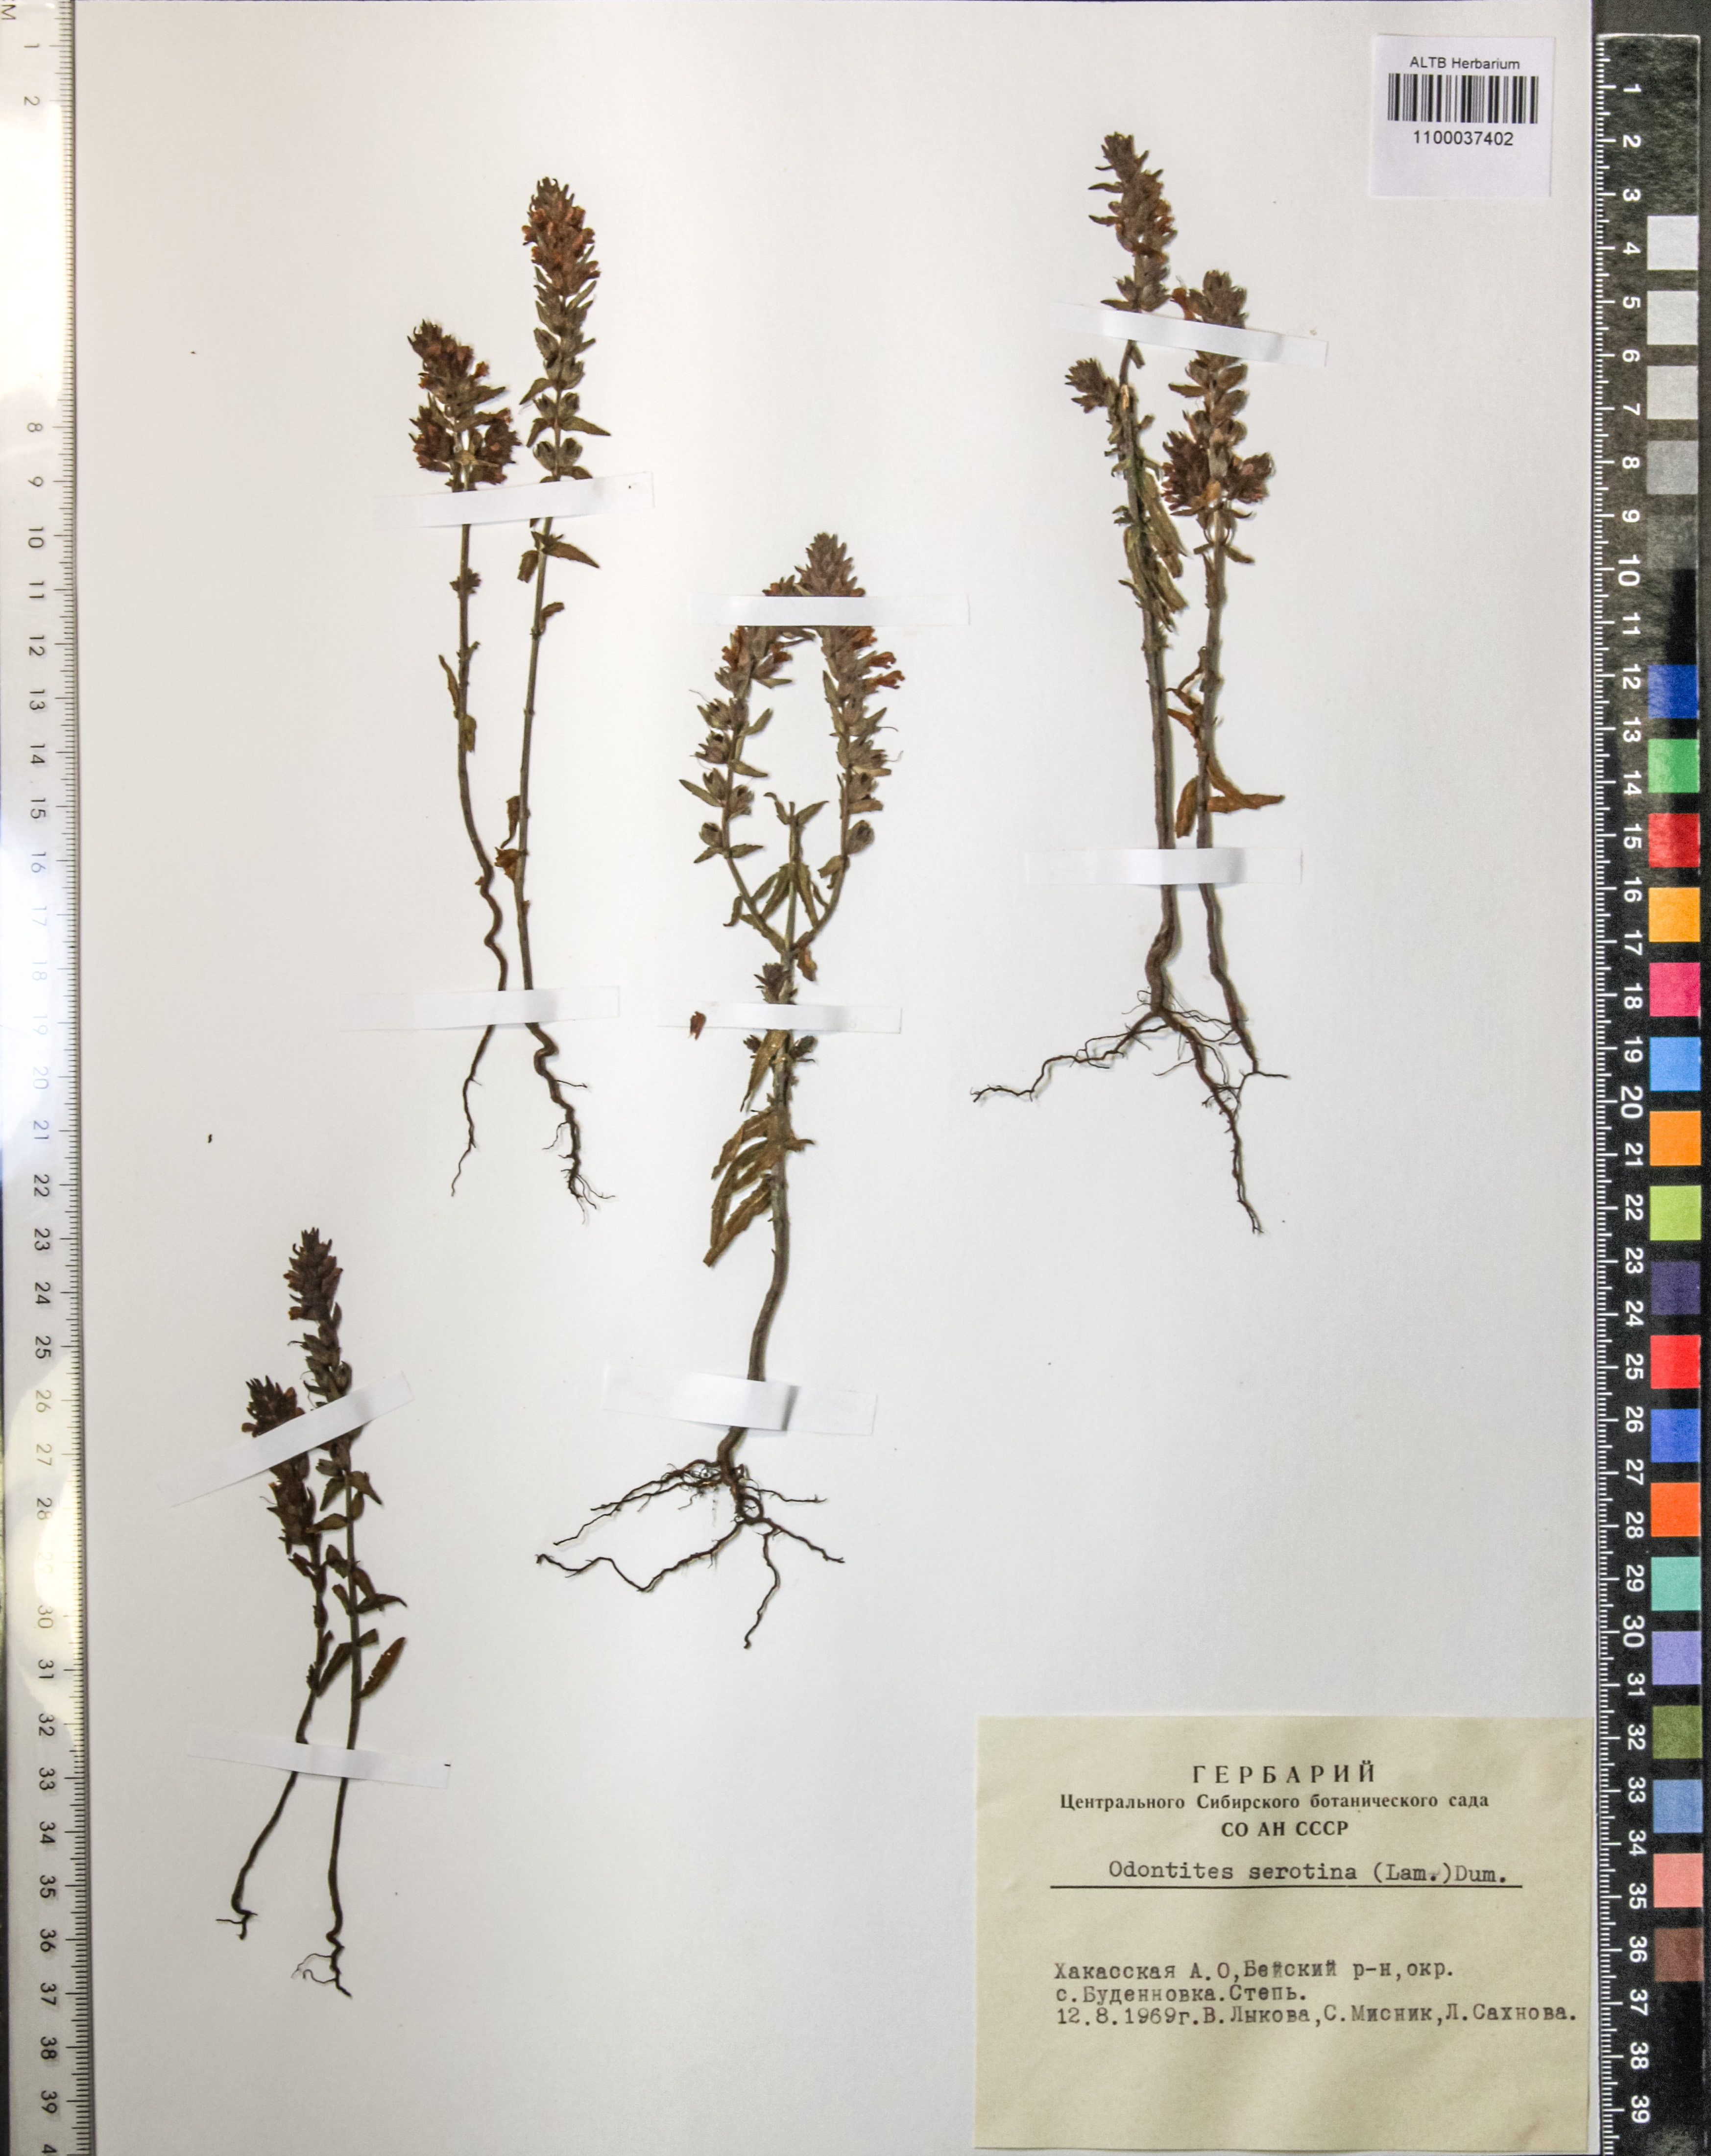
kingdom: Plantae
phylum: Tracheophyta
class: Magnoliopsida
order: Lamiales
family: Orobanchaceae
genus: Odontites
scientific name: Odontites vulgaris
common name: Broomrape
